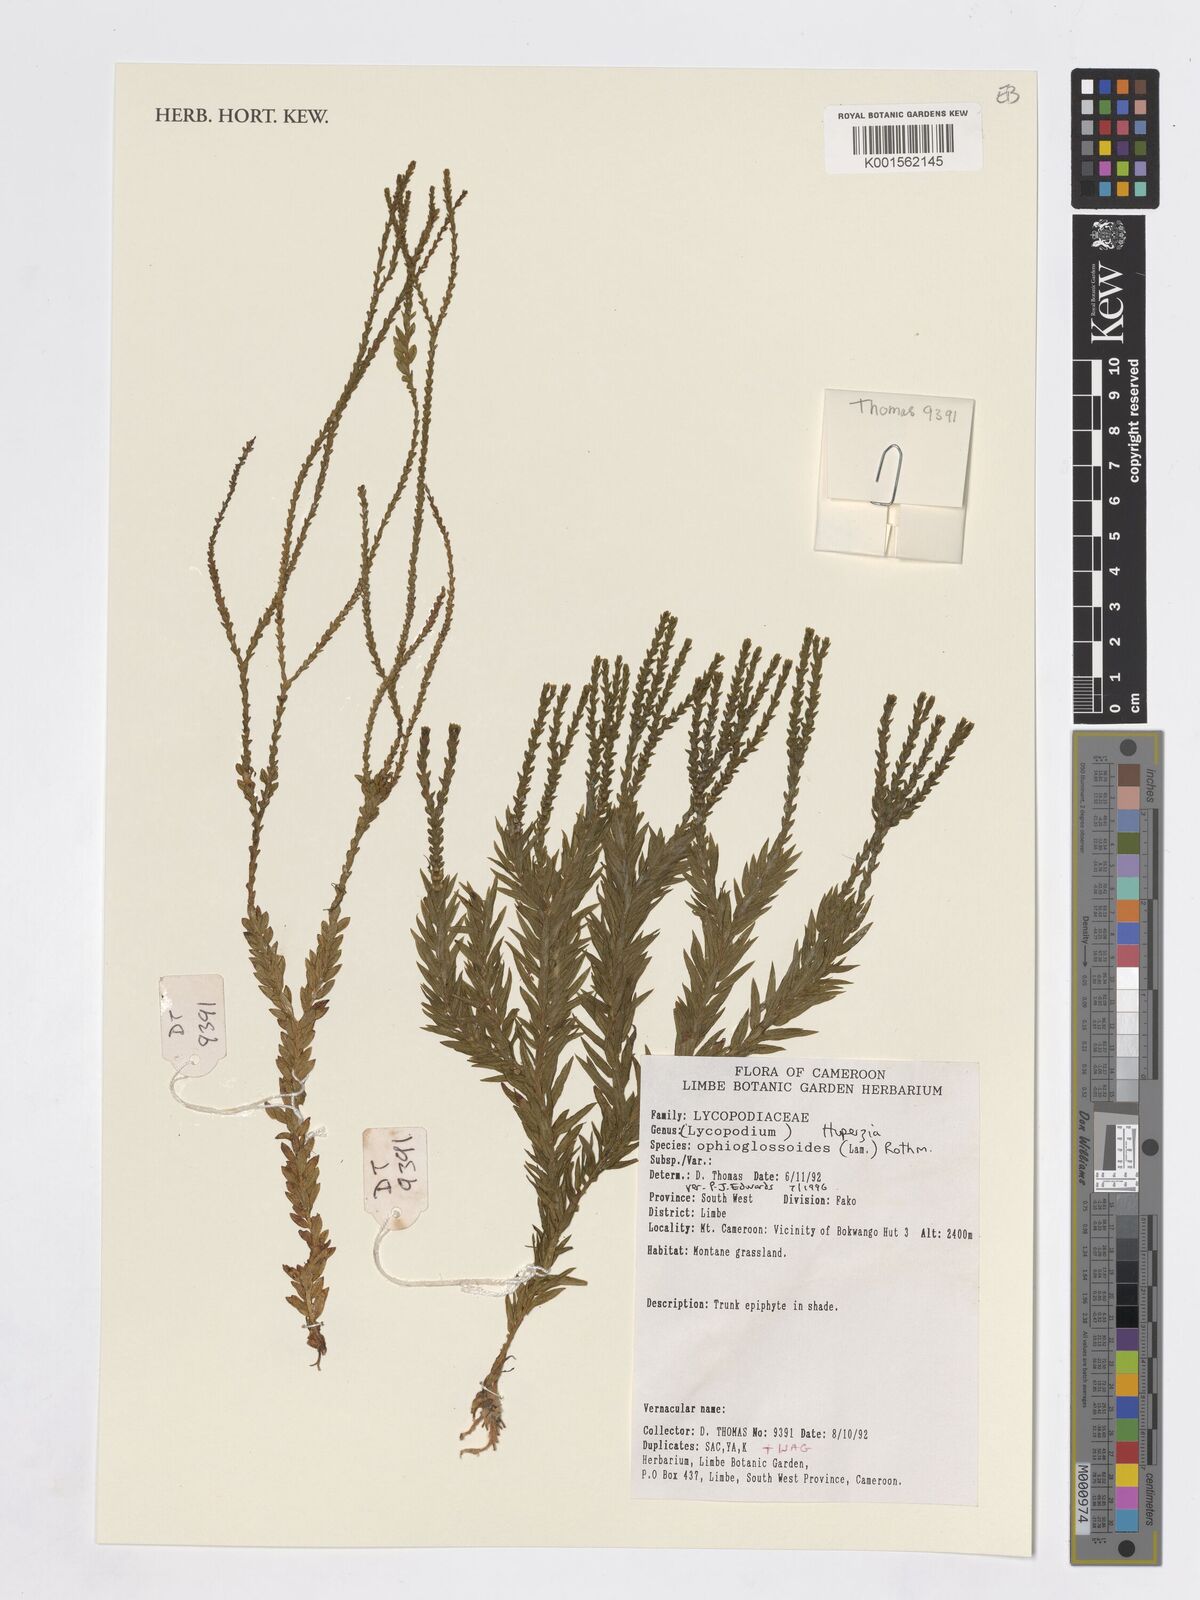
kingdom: Plantae
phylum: Tracheophyta
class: Lycopodiopsida
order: Lycopodiales
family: Lycopodiaceae
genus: Phlegmariurus
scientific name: Phlegmariurus ophioglossoides
